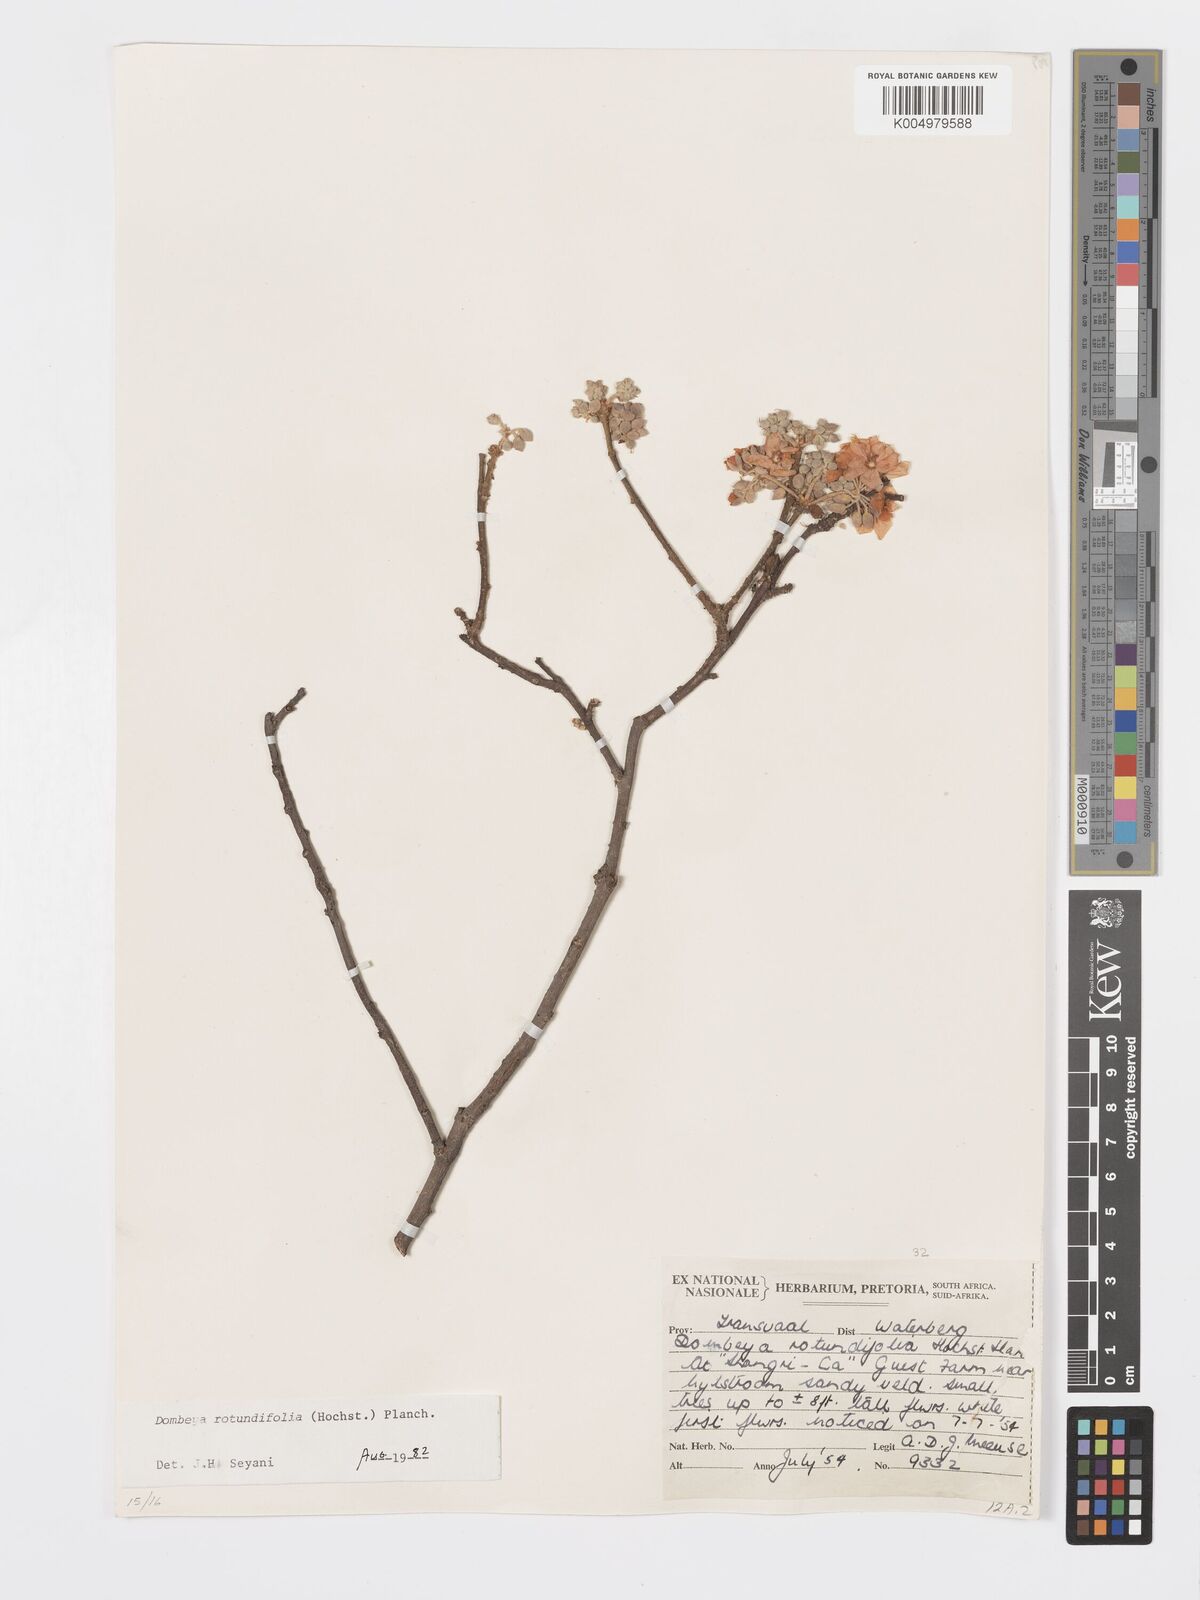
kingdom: Plantae
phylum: Tracheophyta
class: Magnoliopsida
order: Malvales
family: Malvaceae
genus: Dombeya
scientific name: Dombeya rotundifolia
